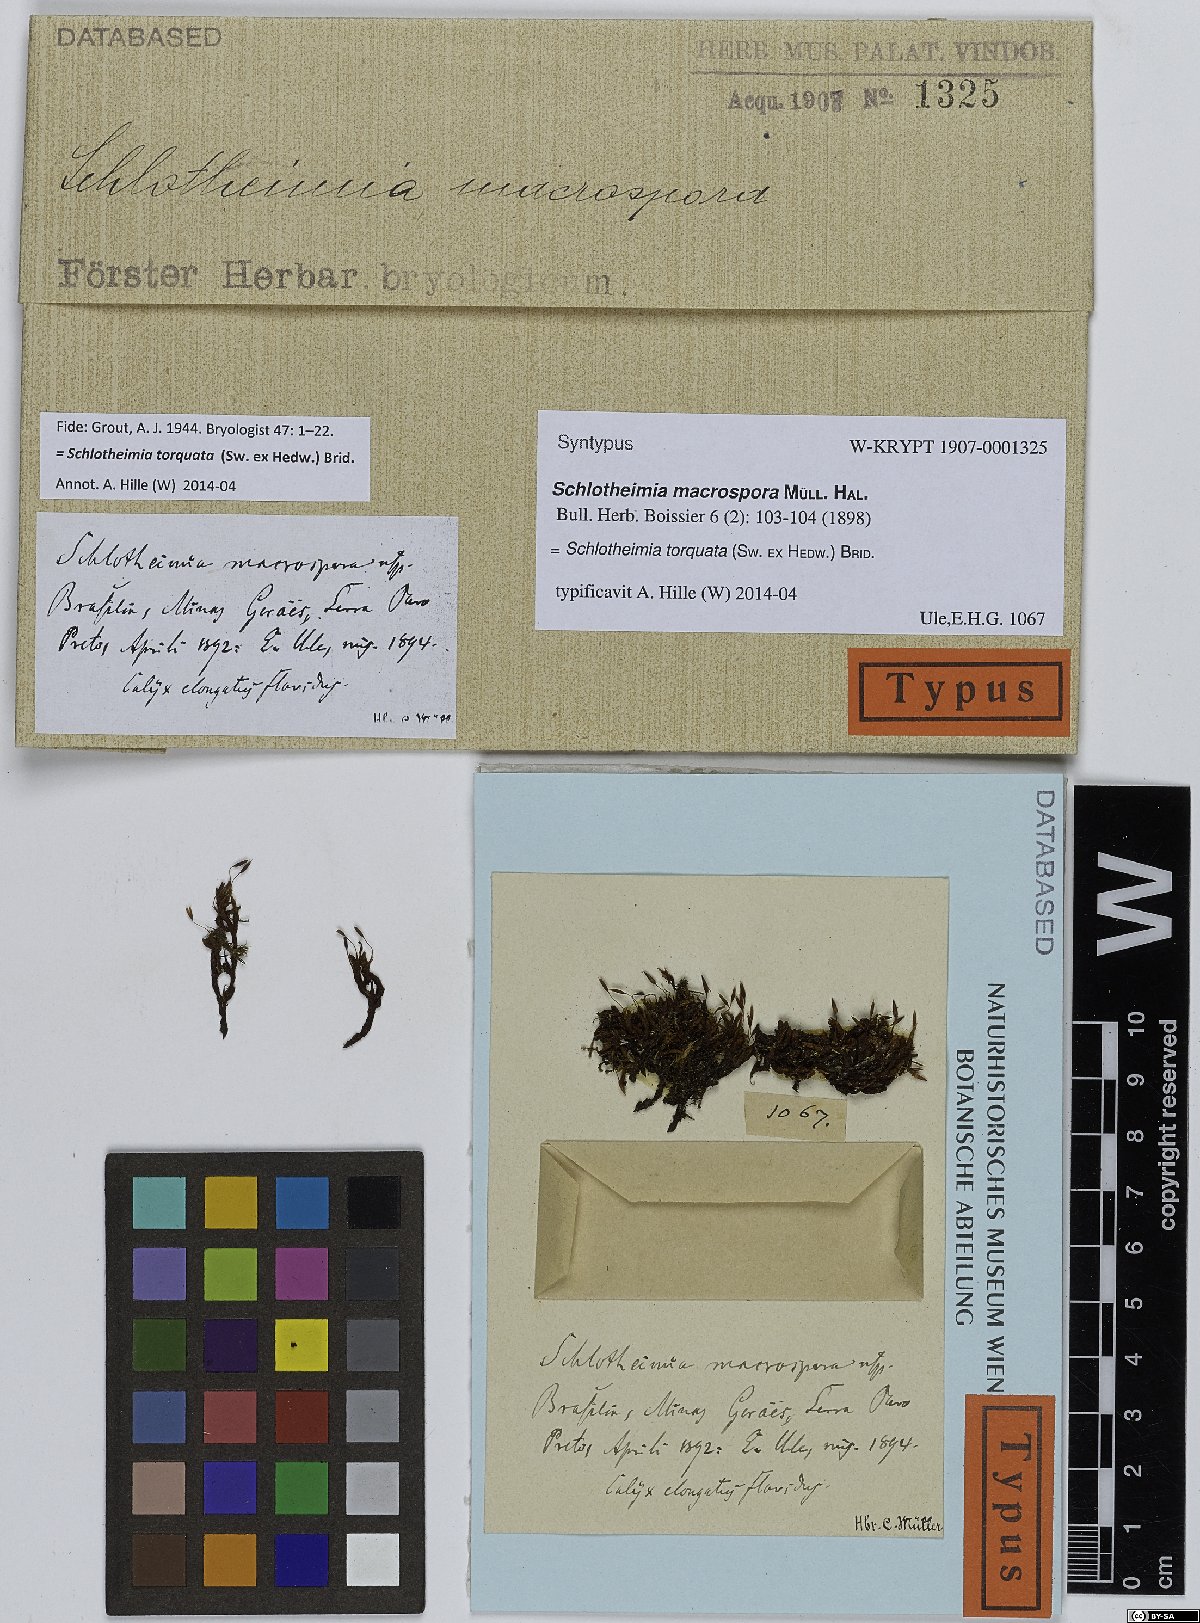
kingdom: Plantae
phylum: Bryophyta
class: Bryopsida
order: Orthotrichales
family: Orthotrichaceae
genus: Schlotheimia
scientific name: Schlotheimia torquata
